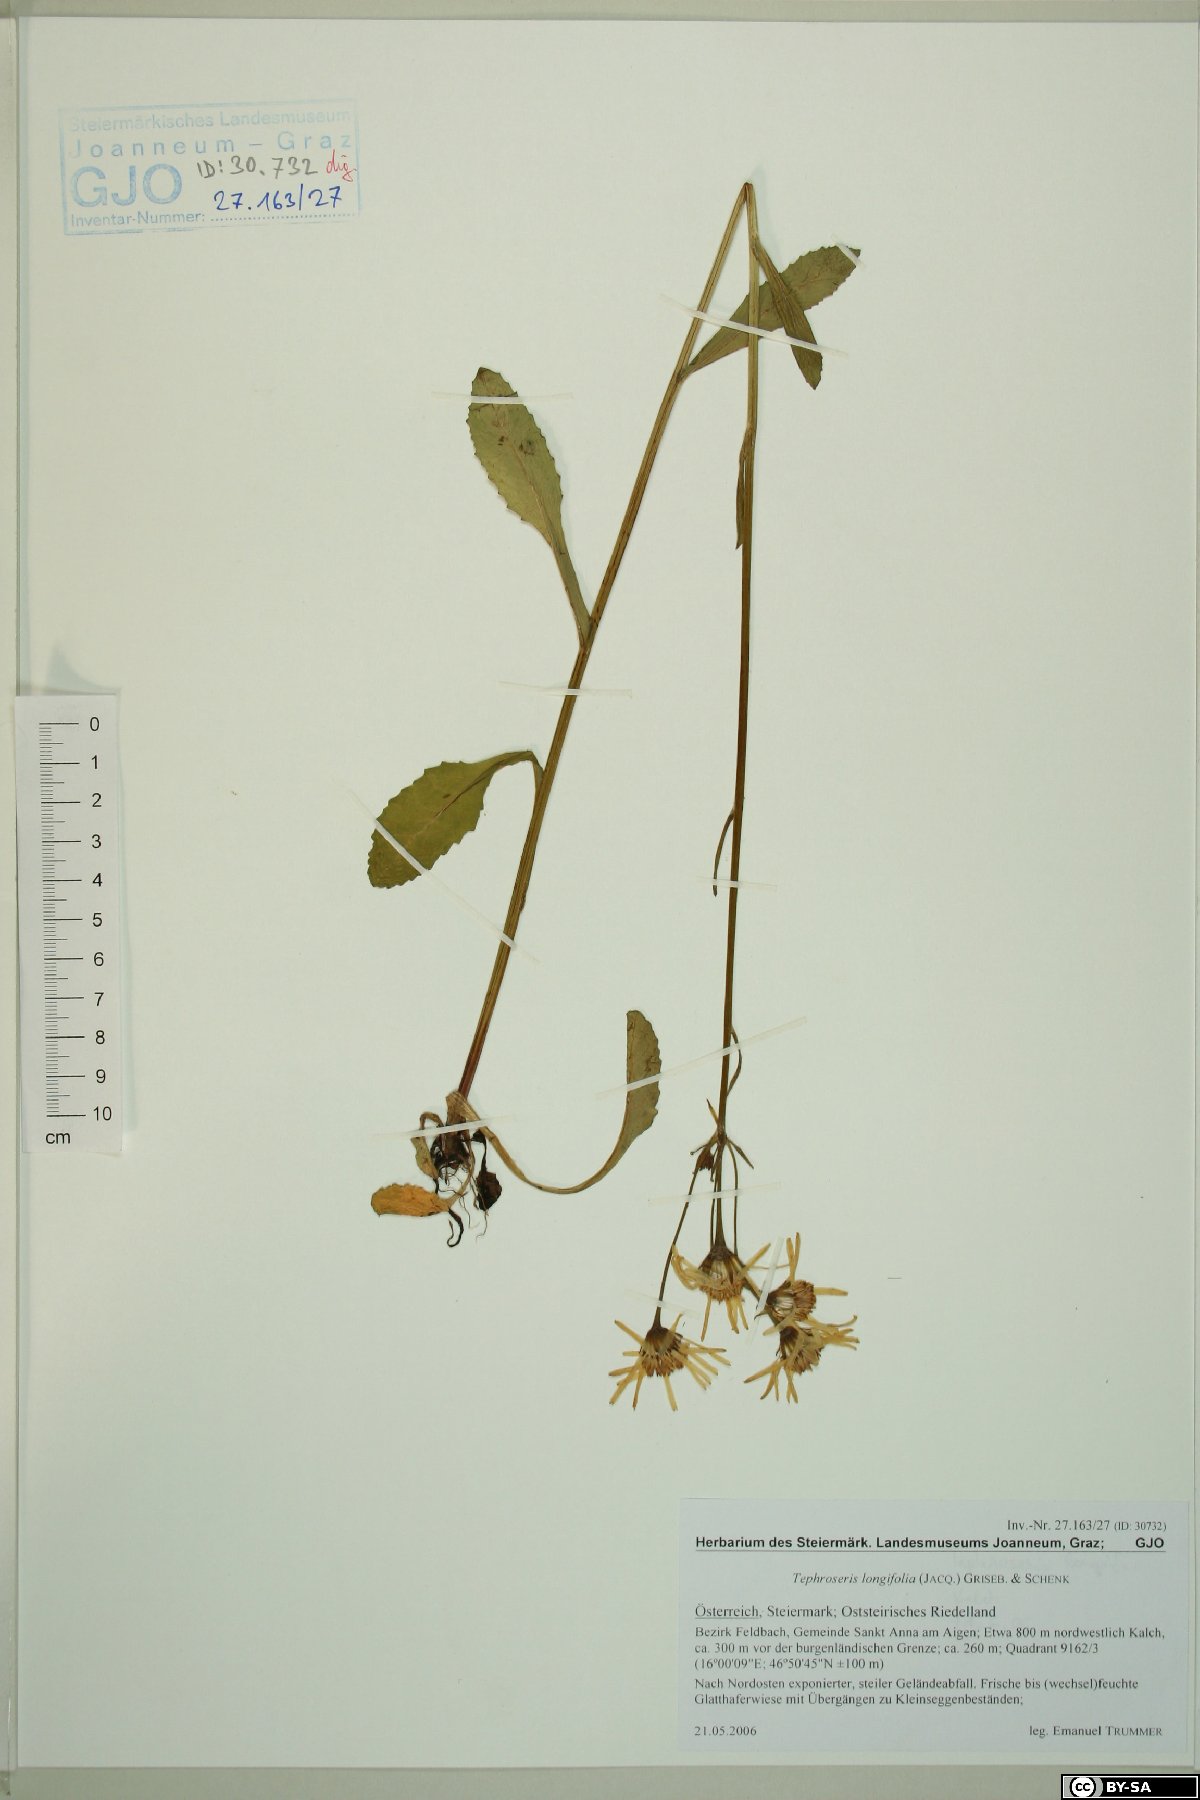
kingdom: Plantae
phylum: Tracheophyta
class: Magnoliopsida
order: Asterales
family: Asteraceae
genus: Tephroseris
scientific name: Tephroseris longifolia
